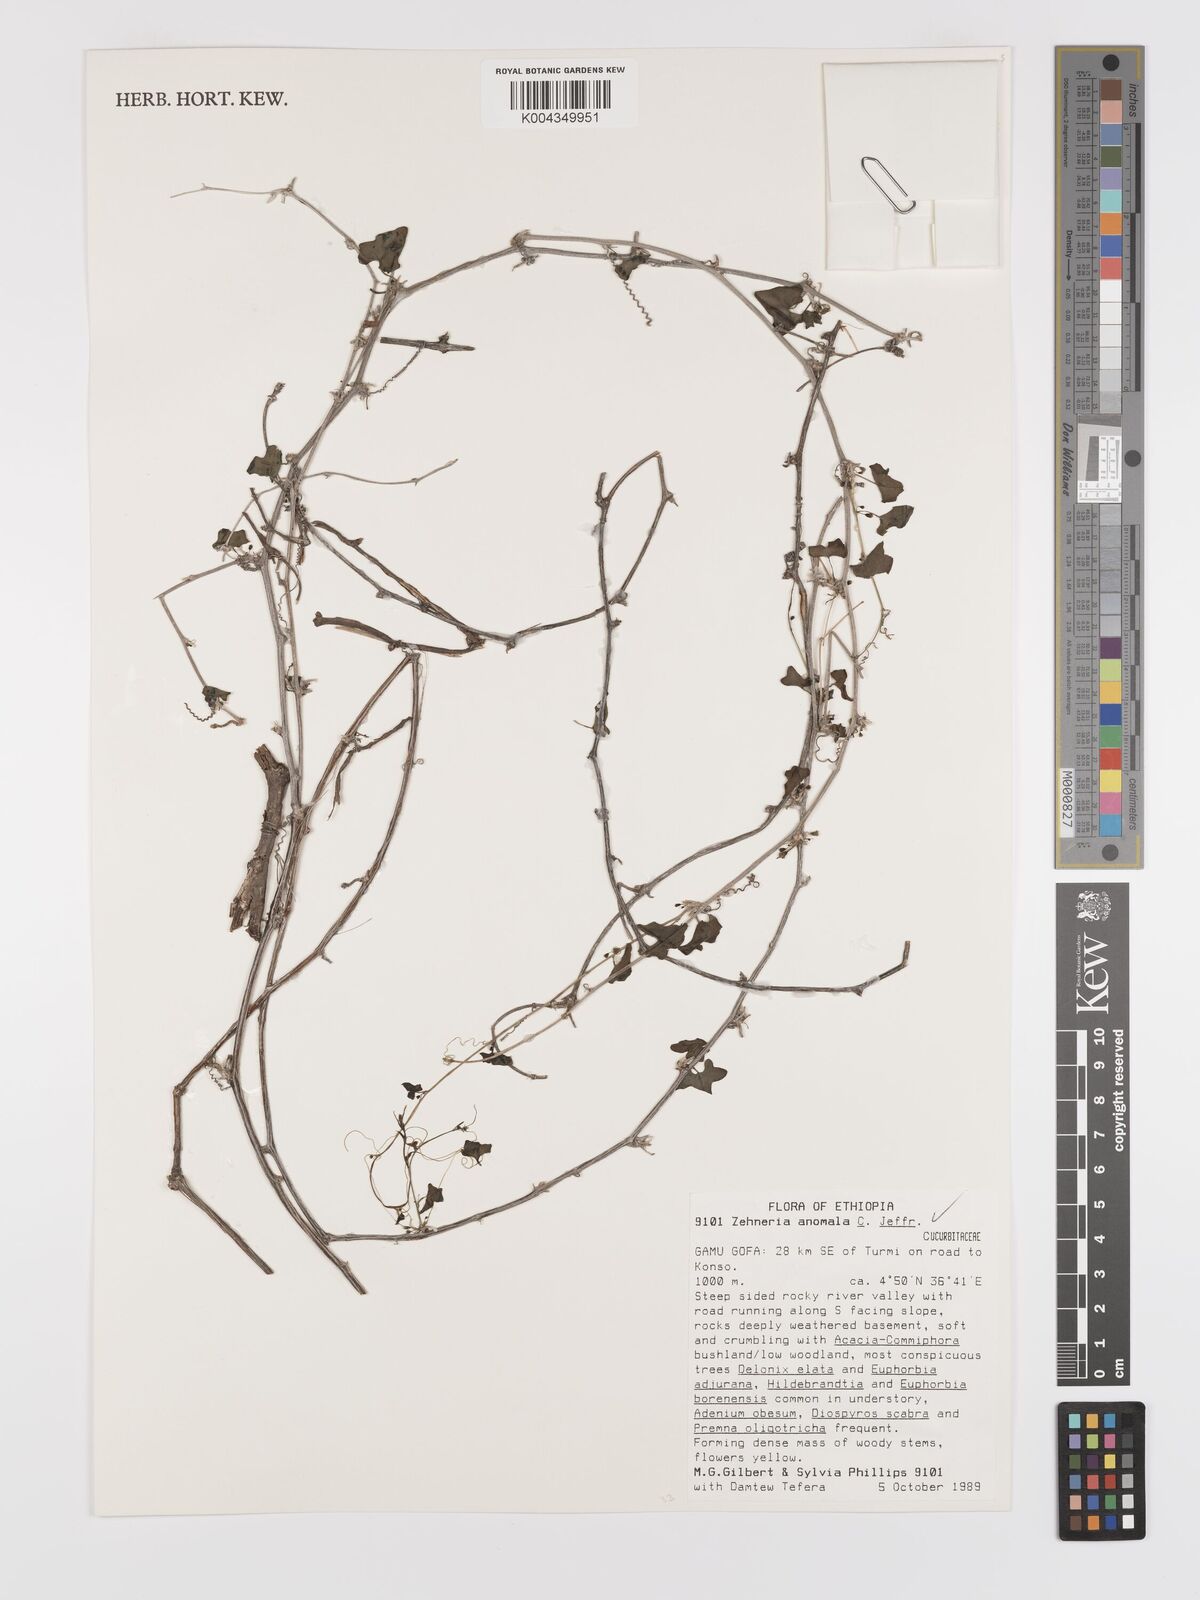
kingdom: Plantae
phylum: Tracheophyta
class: Magnoliopsida
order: Cucurbitales
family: Cucurbitaceae
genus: Zehneria
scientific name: Zehneria anomala
